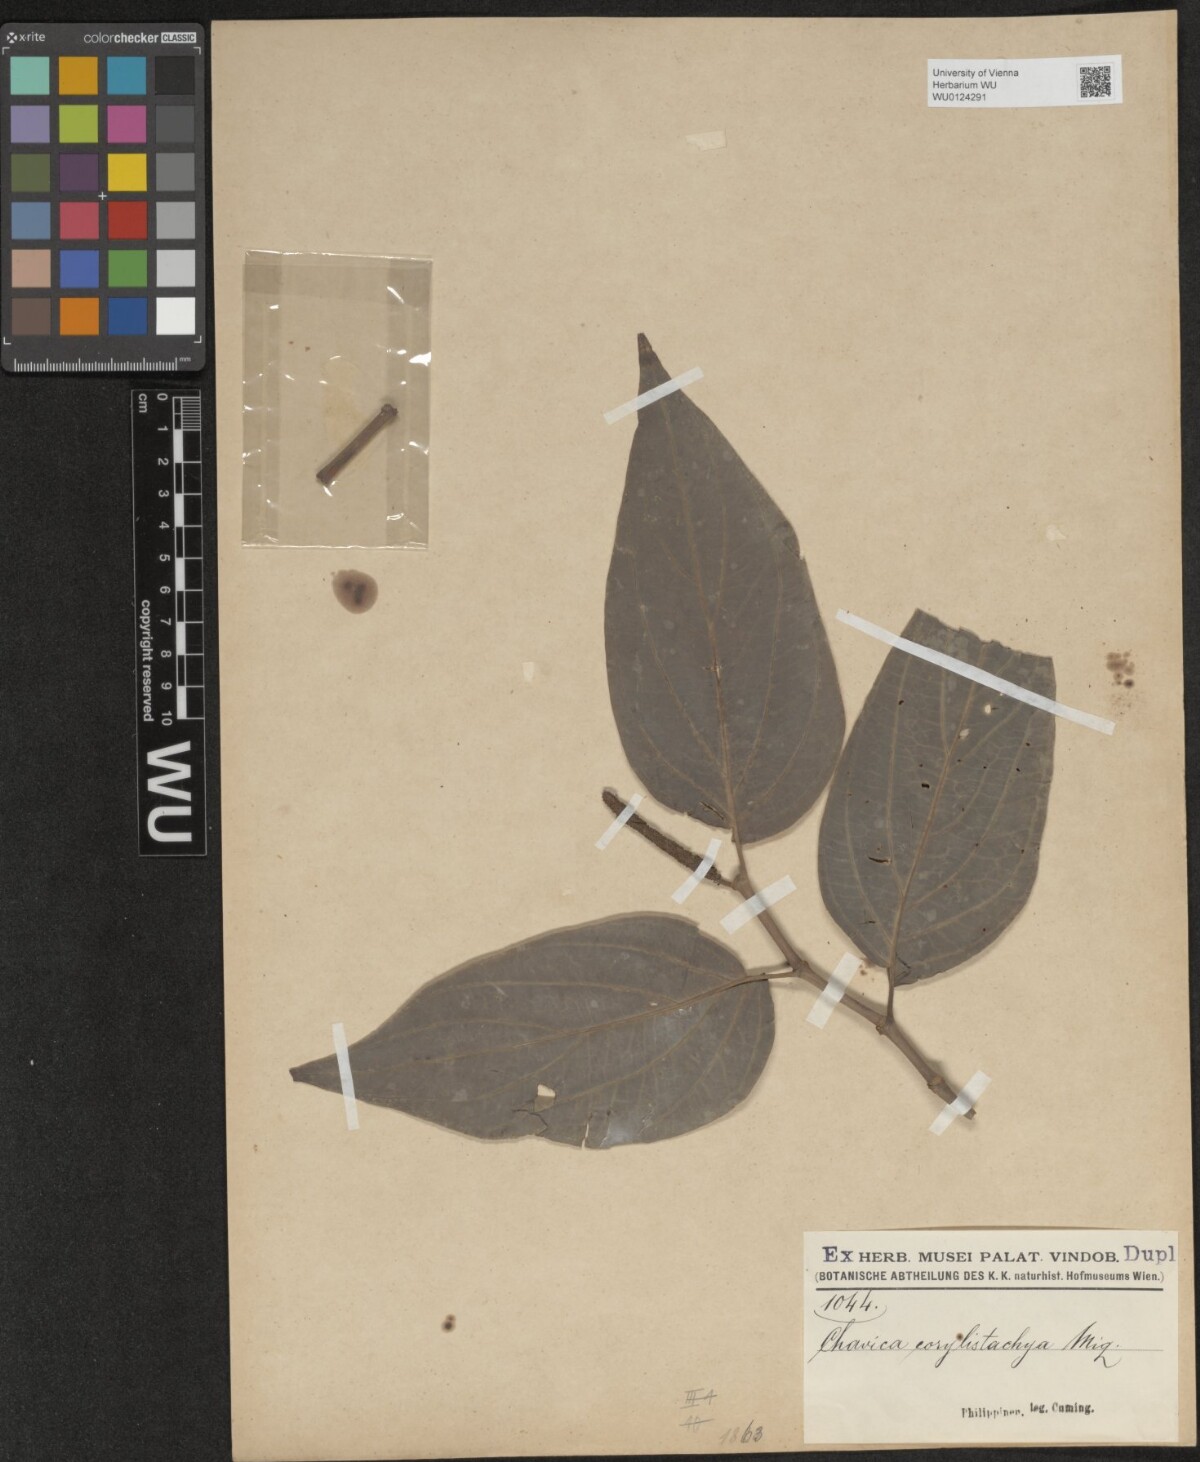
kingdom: Plantae
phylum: Tracheophyta
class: Magnoliopsida
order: Piperales
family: Piperaceae
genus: Piper
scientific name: Piper celtidiforme
